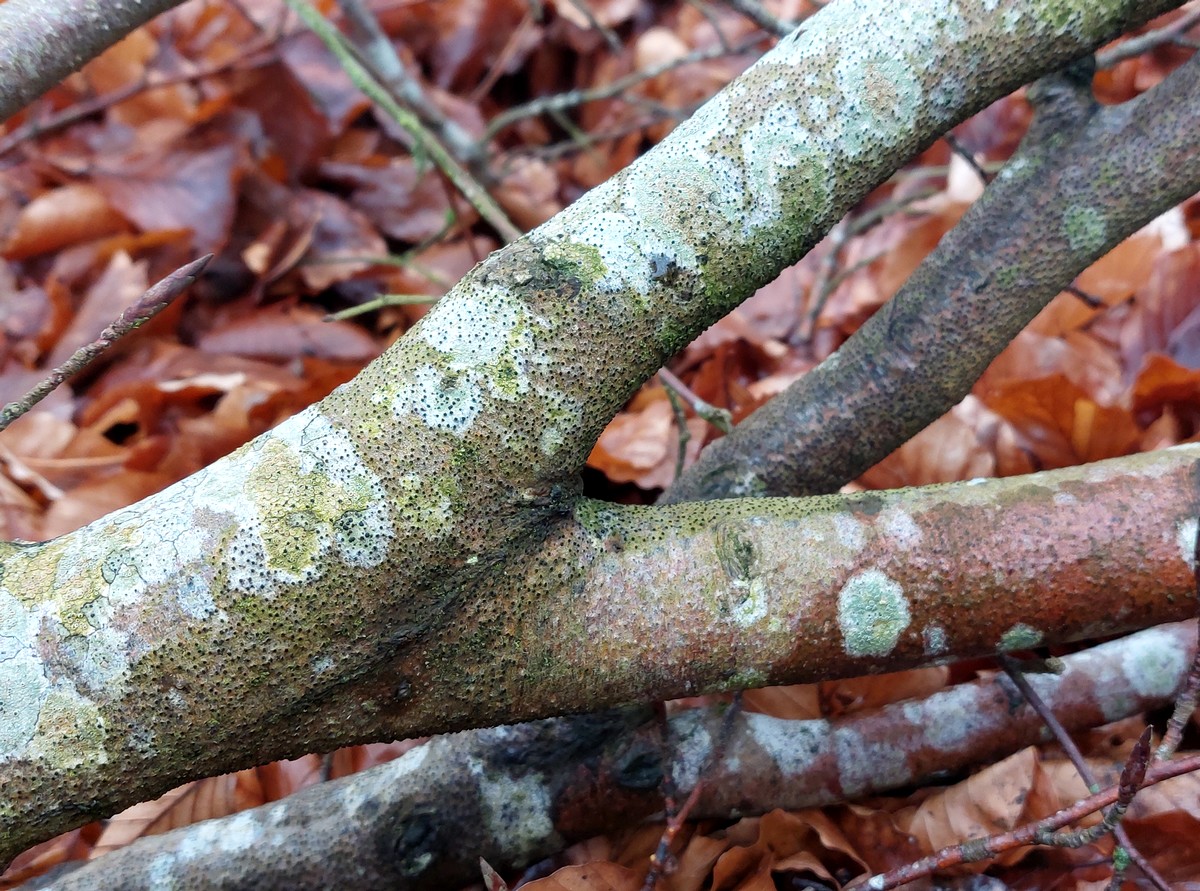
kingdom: Fungi
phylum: Ascomycota
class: Sordariomycetes
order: Xylariales
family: Diatrypaceae
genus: Eutypella
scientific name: Eutypella quaternata
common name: bøge-korsprik
